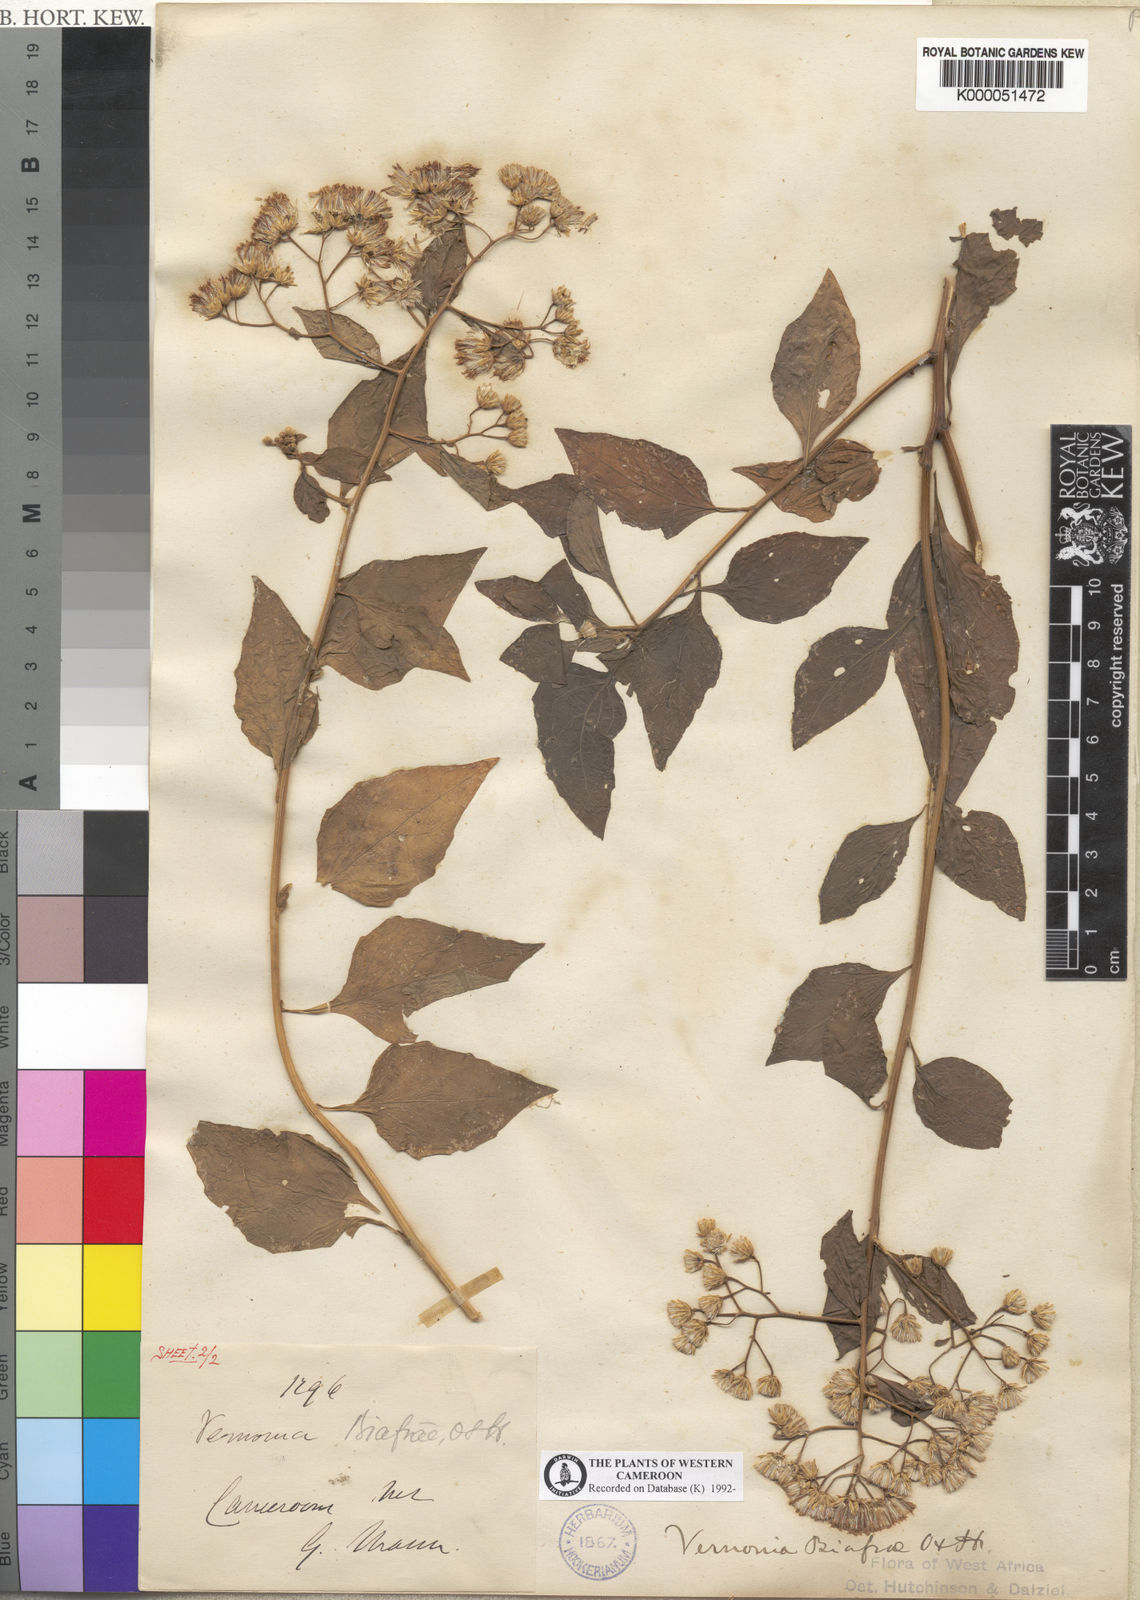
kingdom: Plantae
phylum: Tracheophyta
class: Magnoliopsida
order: Asterales
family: Asteraceae
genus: Distephanus
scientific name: Distephanus biafrae
